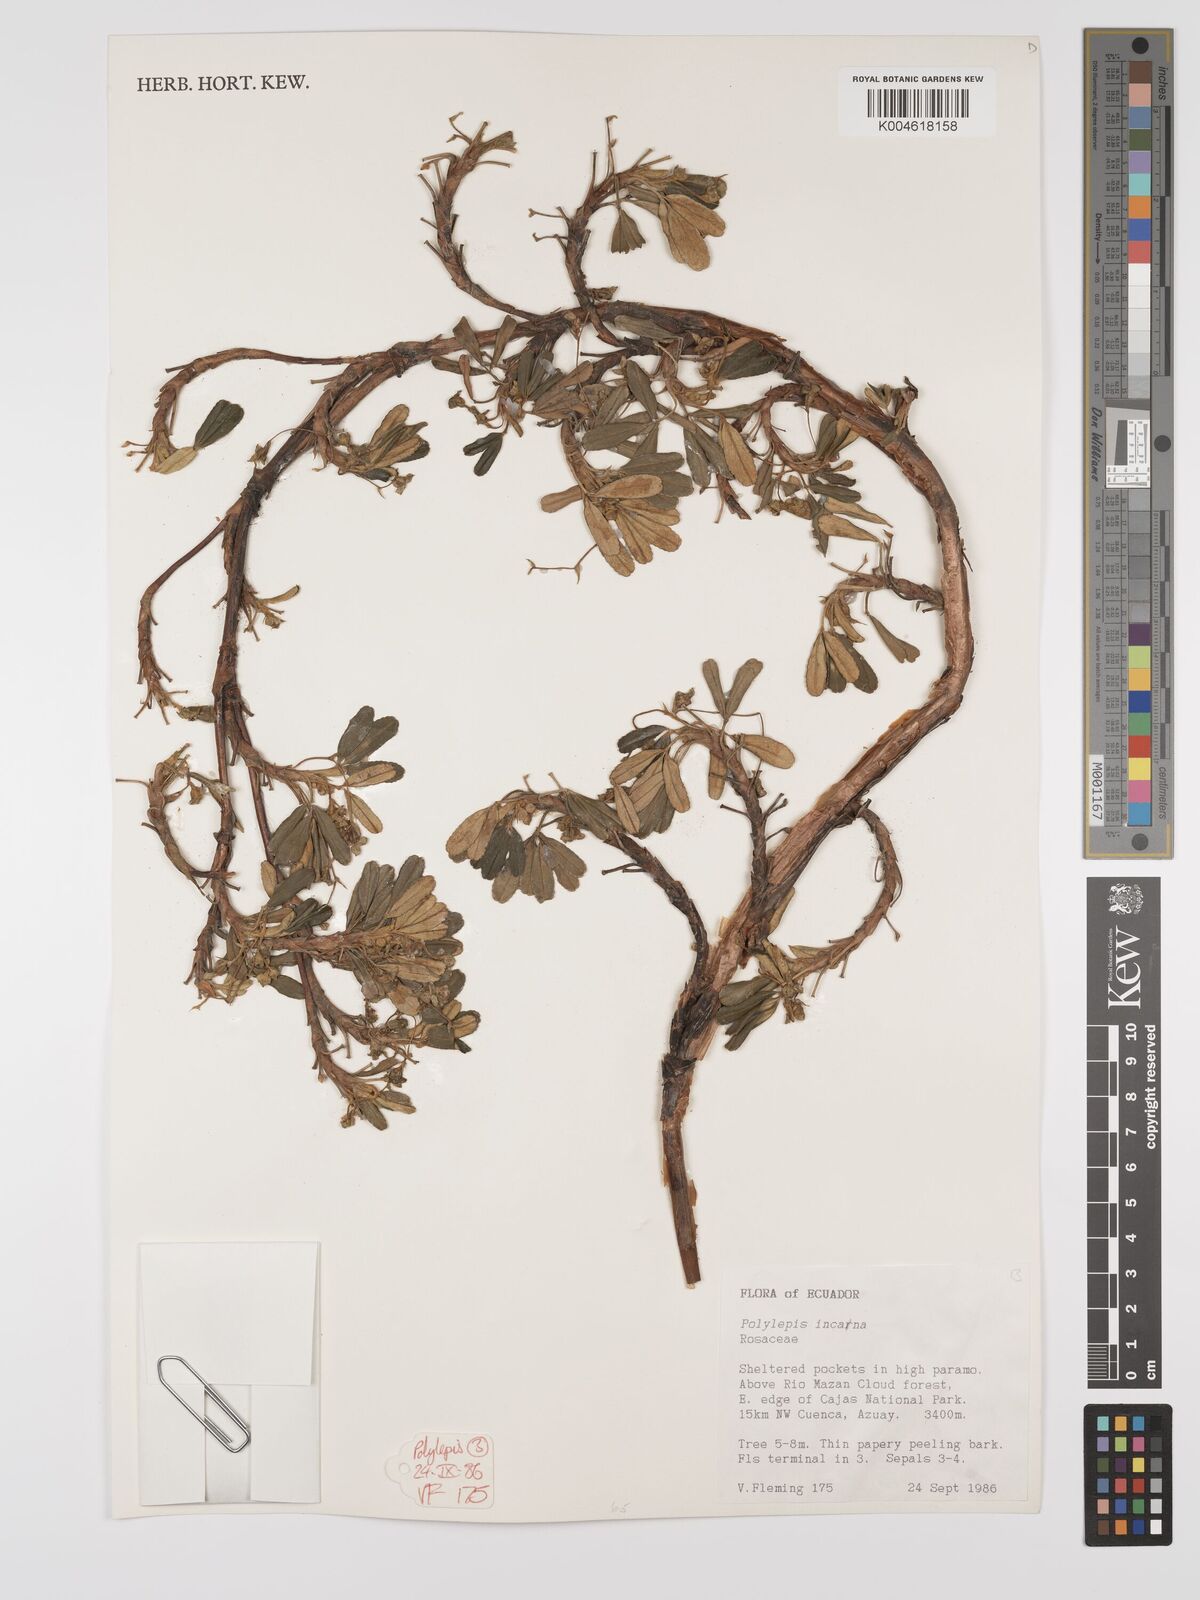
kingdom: Plantae
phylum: Tracheophyta
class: Magnoliopsida
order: Rosales
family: Rosaceae
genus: Polylepis
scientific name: Polylepis incana
